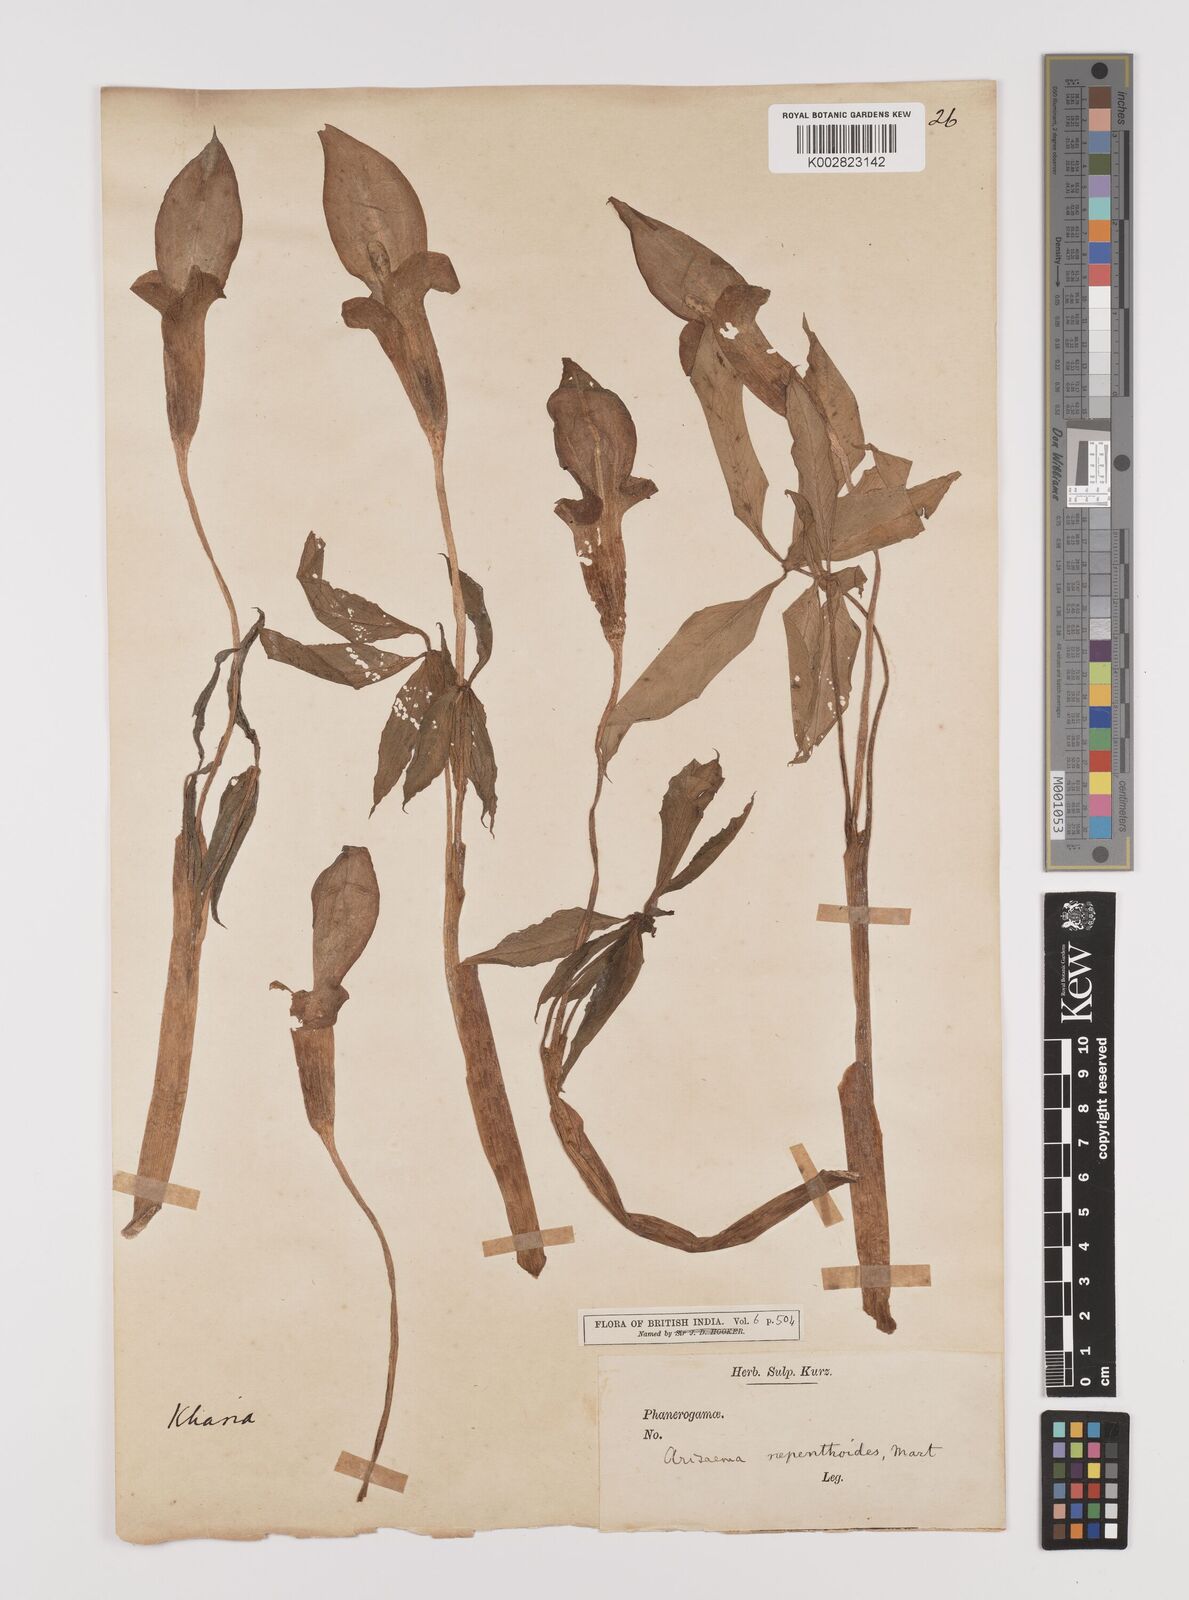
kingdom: Plantae
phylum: Tracheophyta
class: Liliopsida
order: Alismatales
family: Araceae
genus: Arisaema
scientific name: Arisaema nepenthoides
